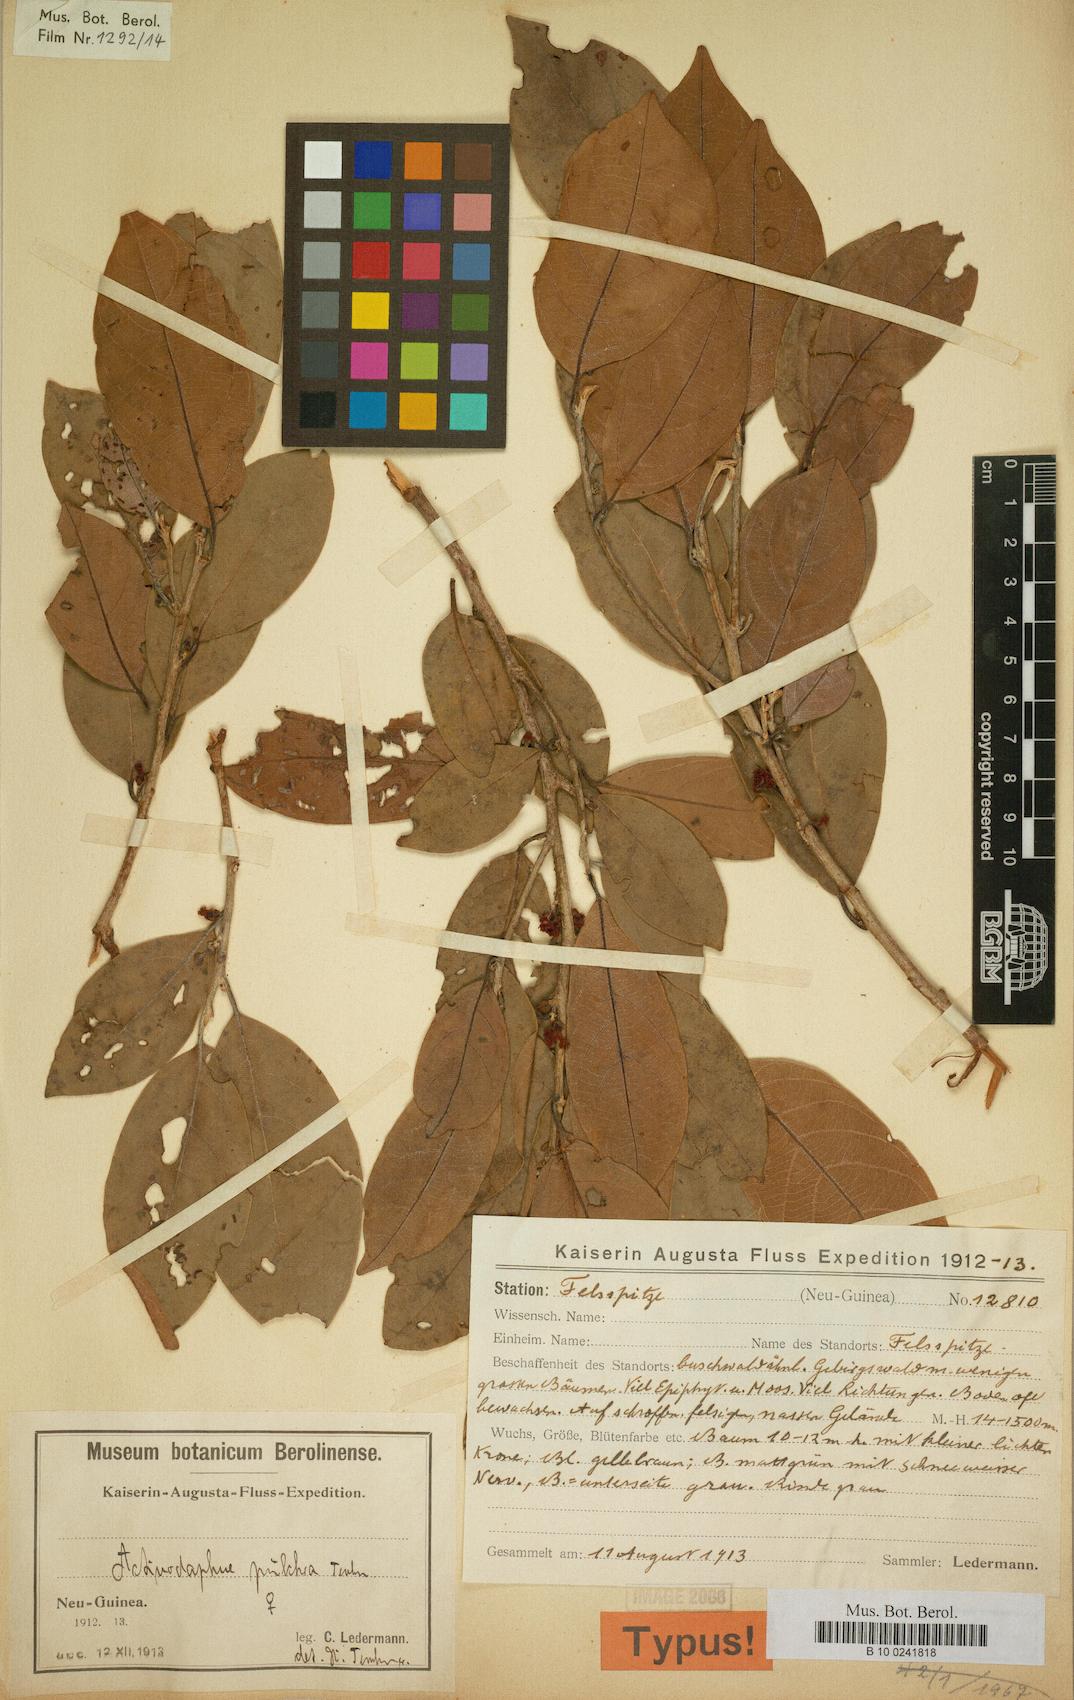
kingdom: Plantae
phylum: Tracheophyta
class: Magnoliopsida
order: Laurales
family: Lauraceae
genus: Litsea
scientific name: Litsea minor
